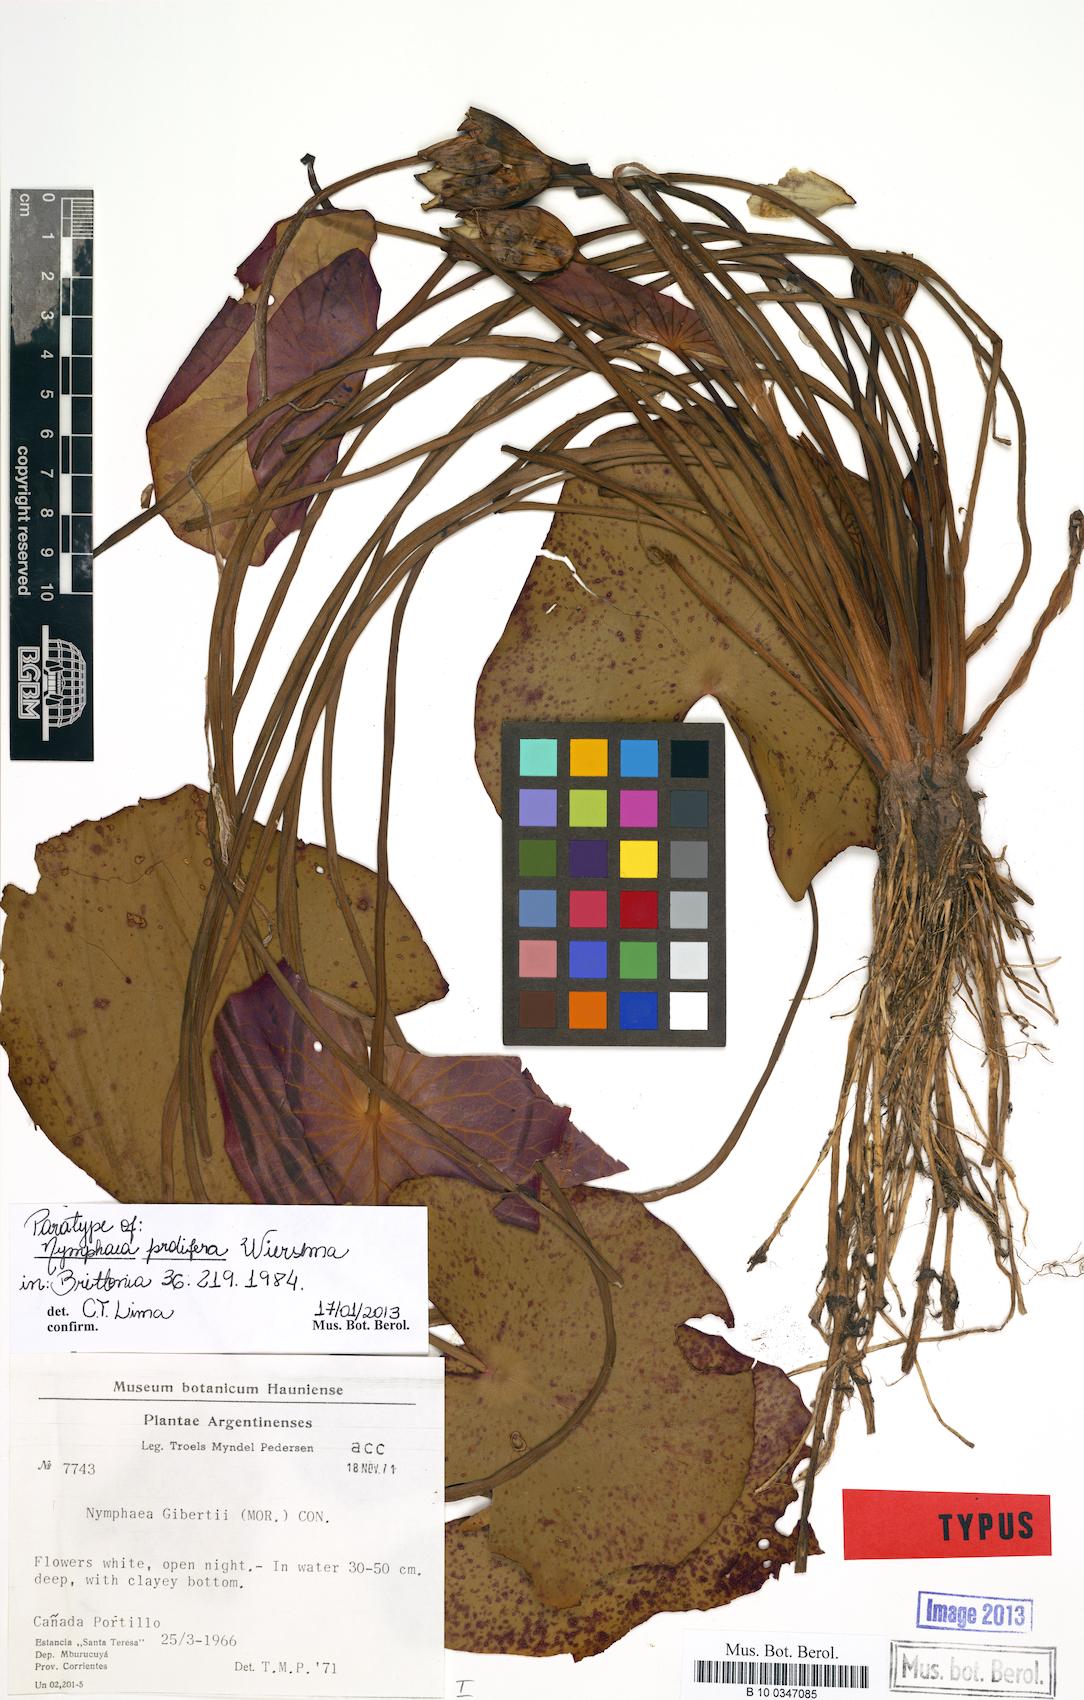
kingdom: Plantae
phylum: Tracheophyta
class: Magnoliopsida
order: Nymphaeales
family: Nymphaeaceae
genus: Nymphaea
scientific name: Nymphaea jamesoniana
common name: James' waterlily
